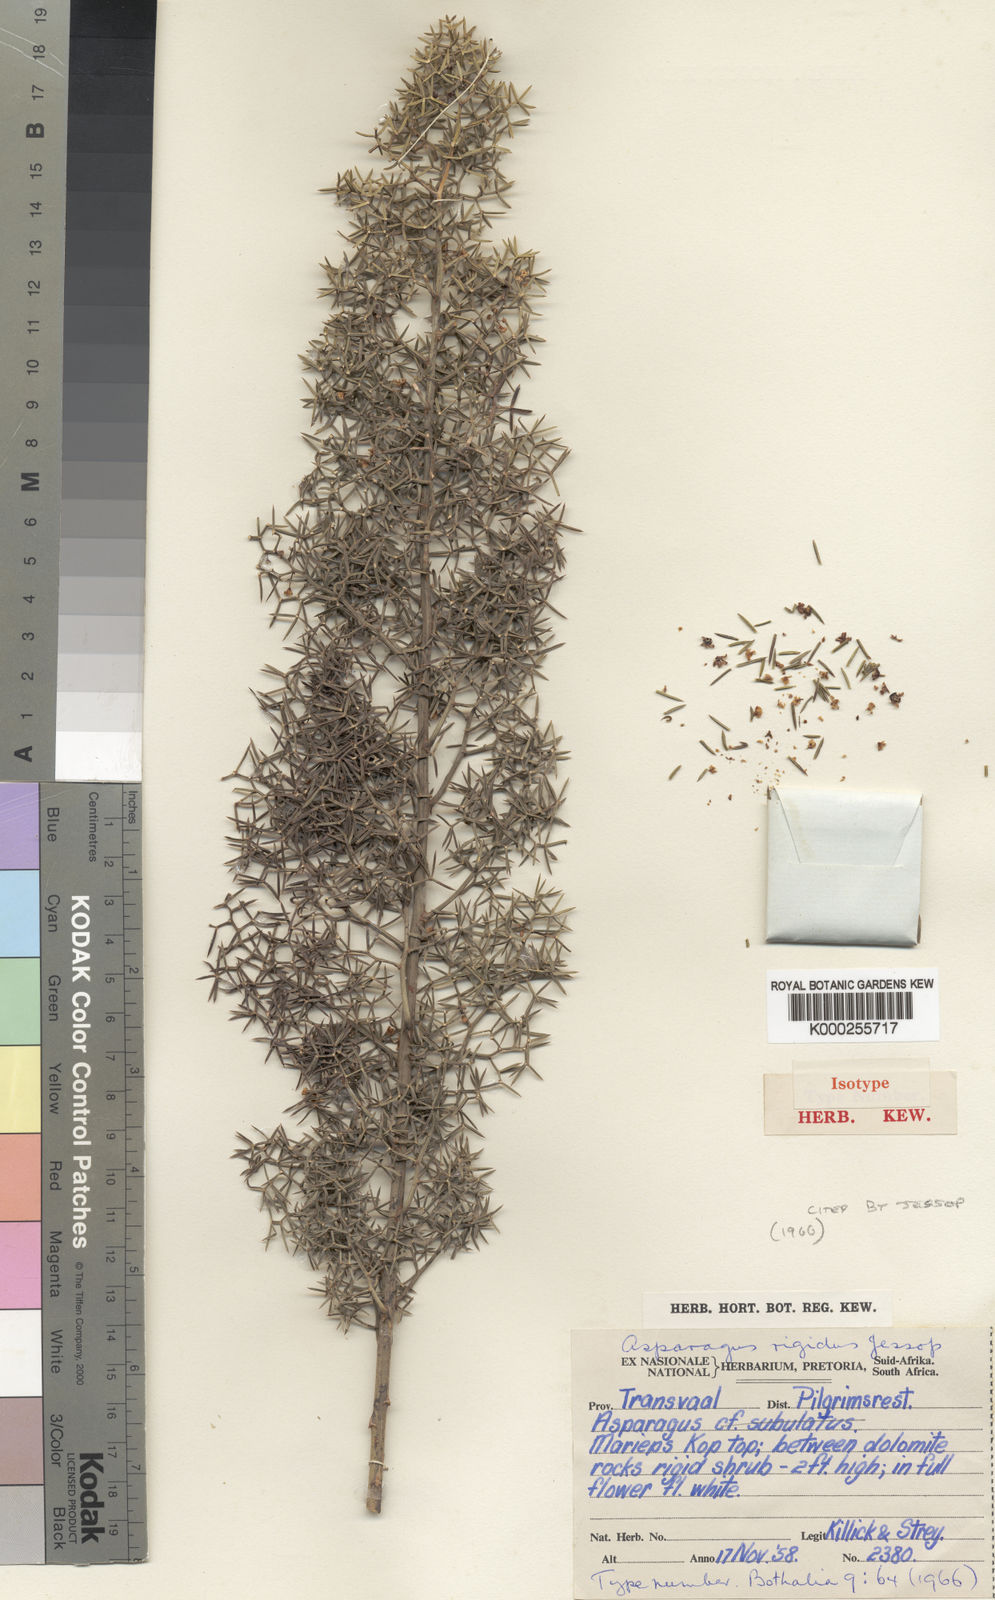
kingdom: Plantae
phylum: Tracheophyta
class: Liliopsida
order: Asparagales
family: Asparagaceae
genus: Asparagus
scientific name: Asparagus rigidus
